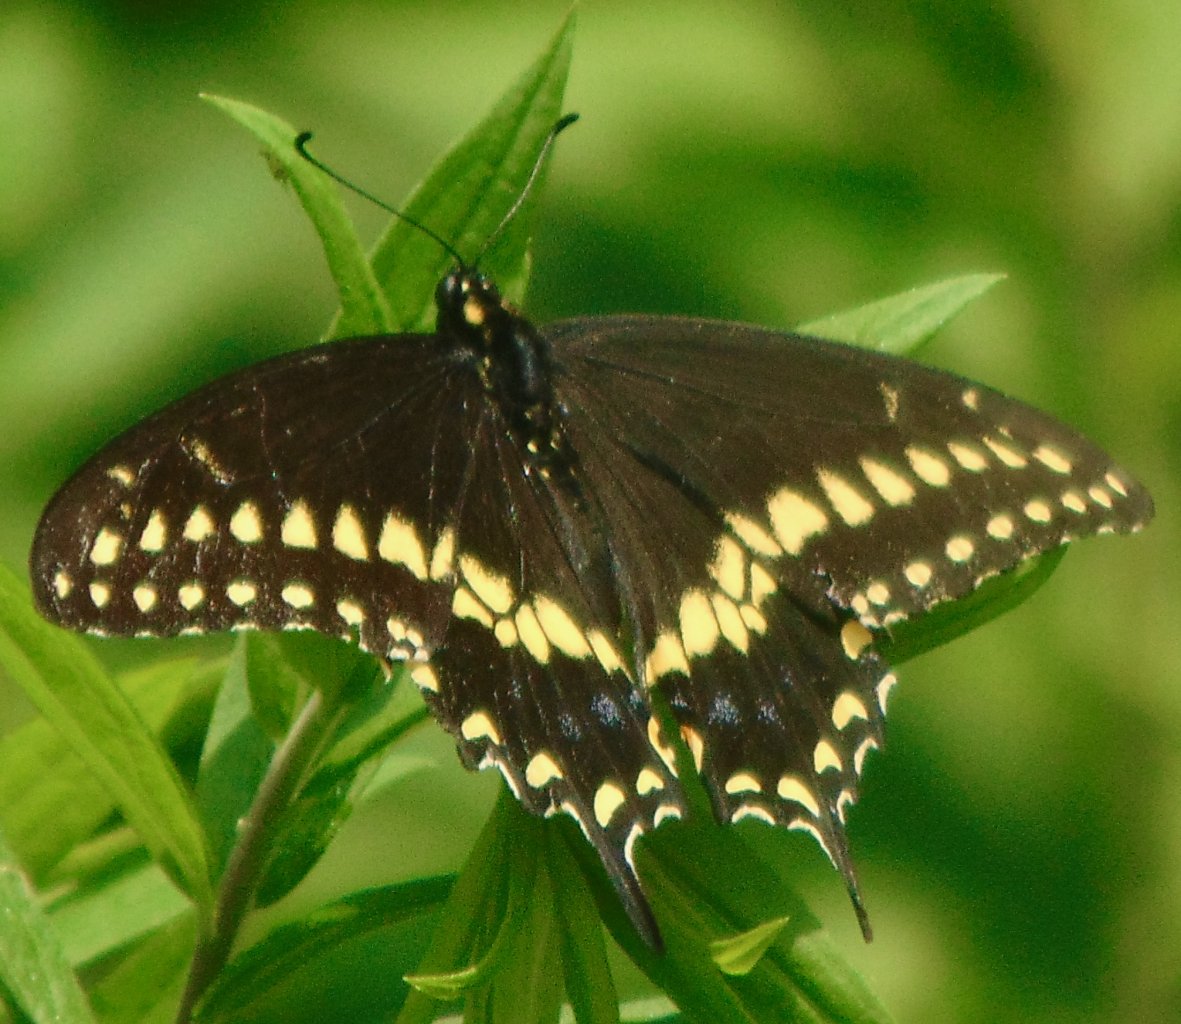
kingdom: Animalia
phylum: Arthropoda
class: Insecta
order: Lepidoptera
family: Papilionidae
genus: Papilio
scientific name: Papilio polyxenes
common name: Black Swallowtail
